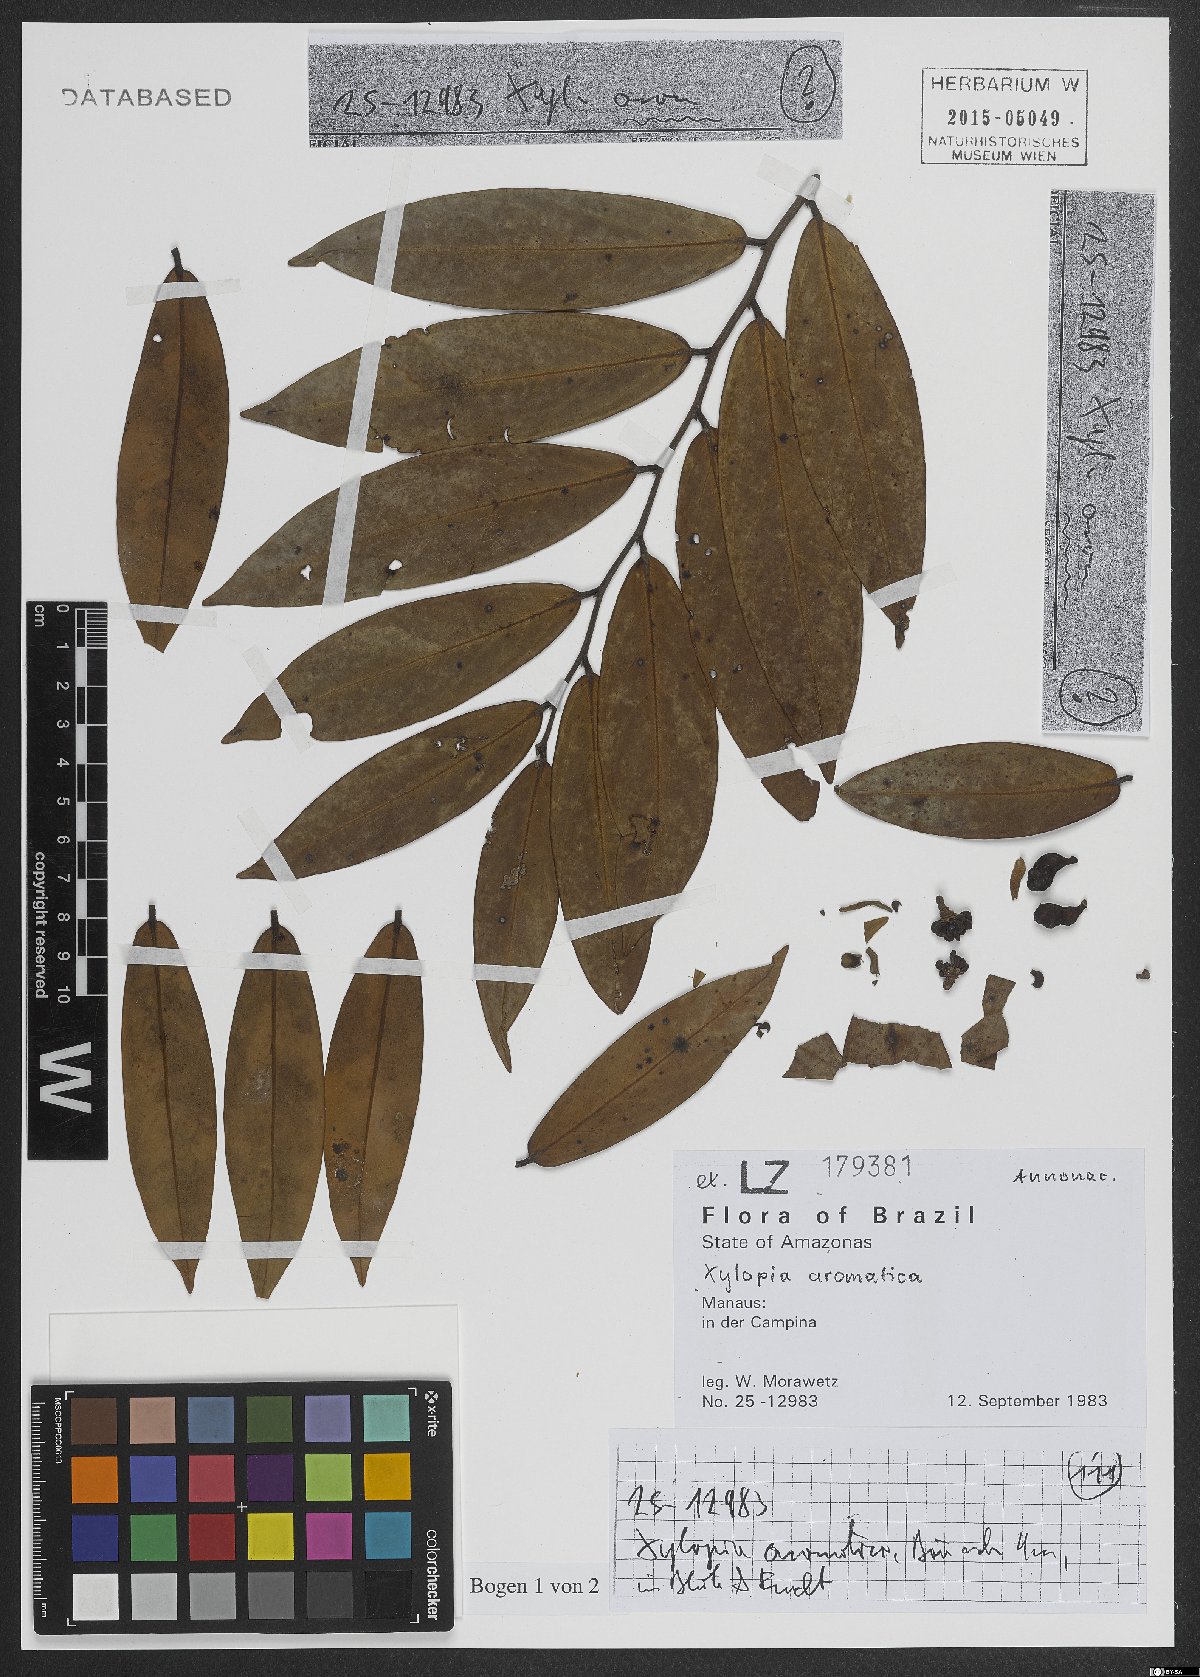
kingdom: Plantae
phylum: Tracheophyta
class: Magnoliopsida
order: Magnoliales
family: Annonaceae
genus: Xylopia
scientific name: Xylopia aromatica
